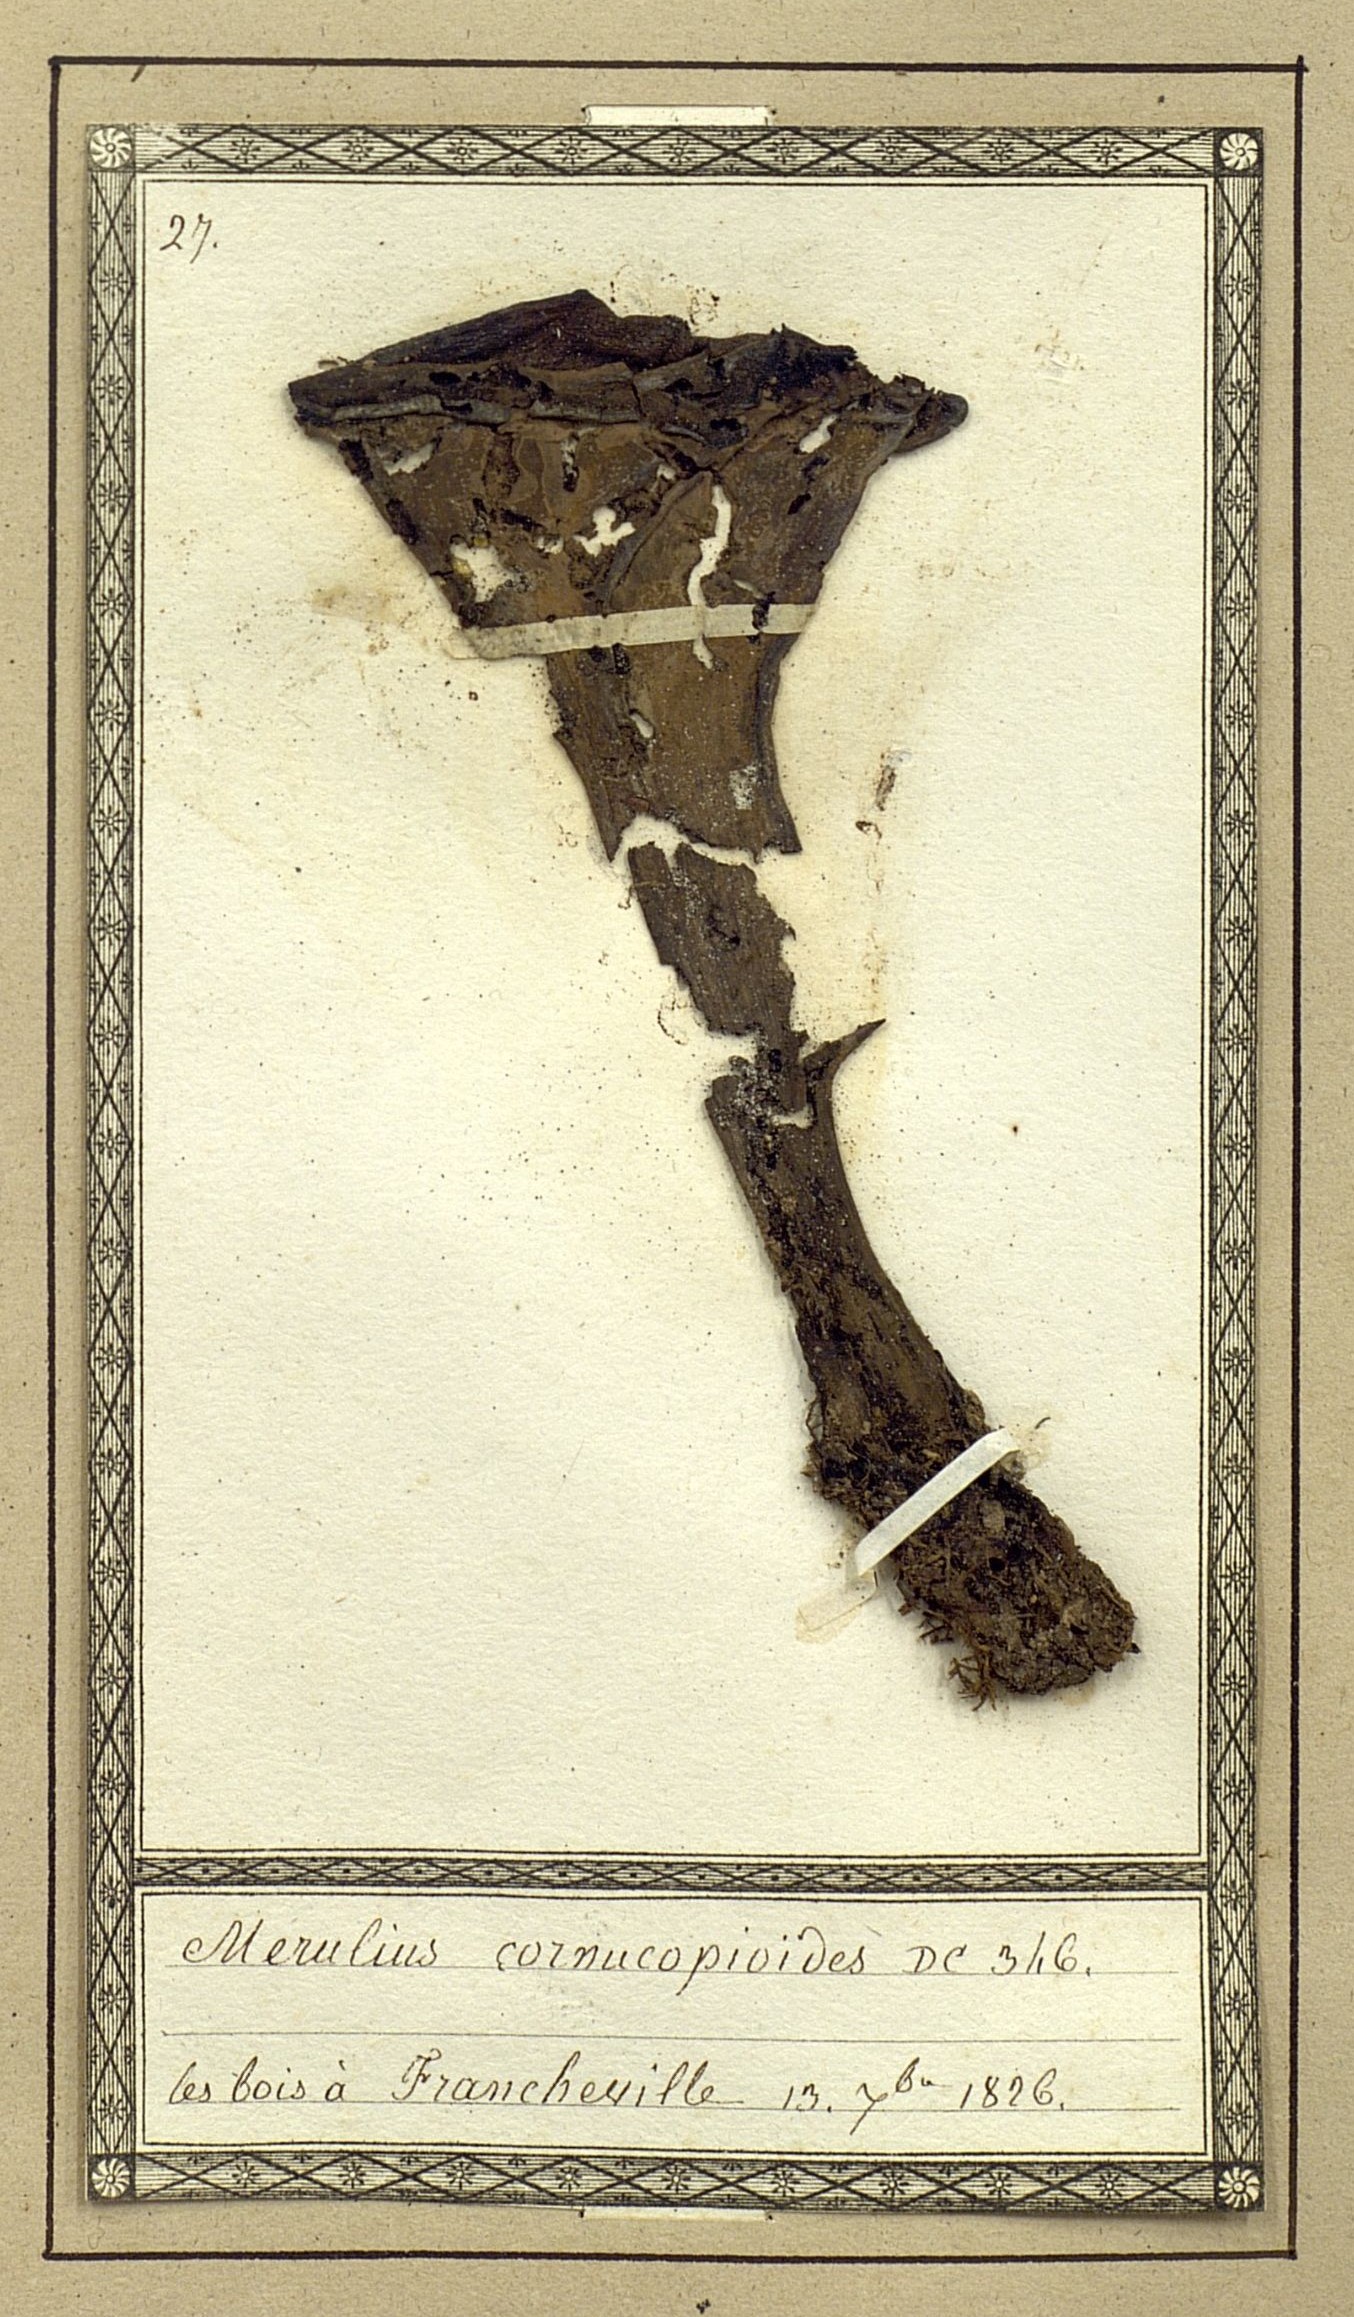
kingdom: Fungi
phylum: Basidiomycota
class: Agaricomycetes
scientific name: Agaricomycetes
